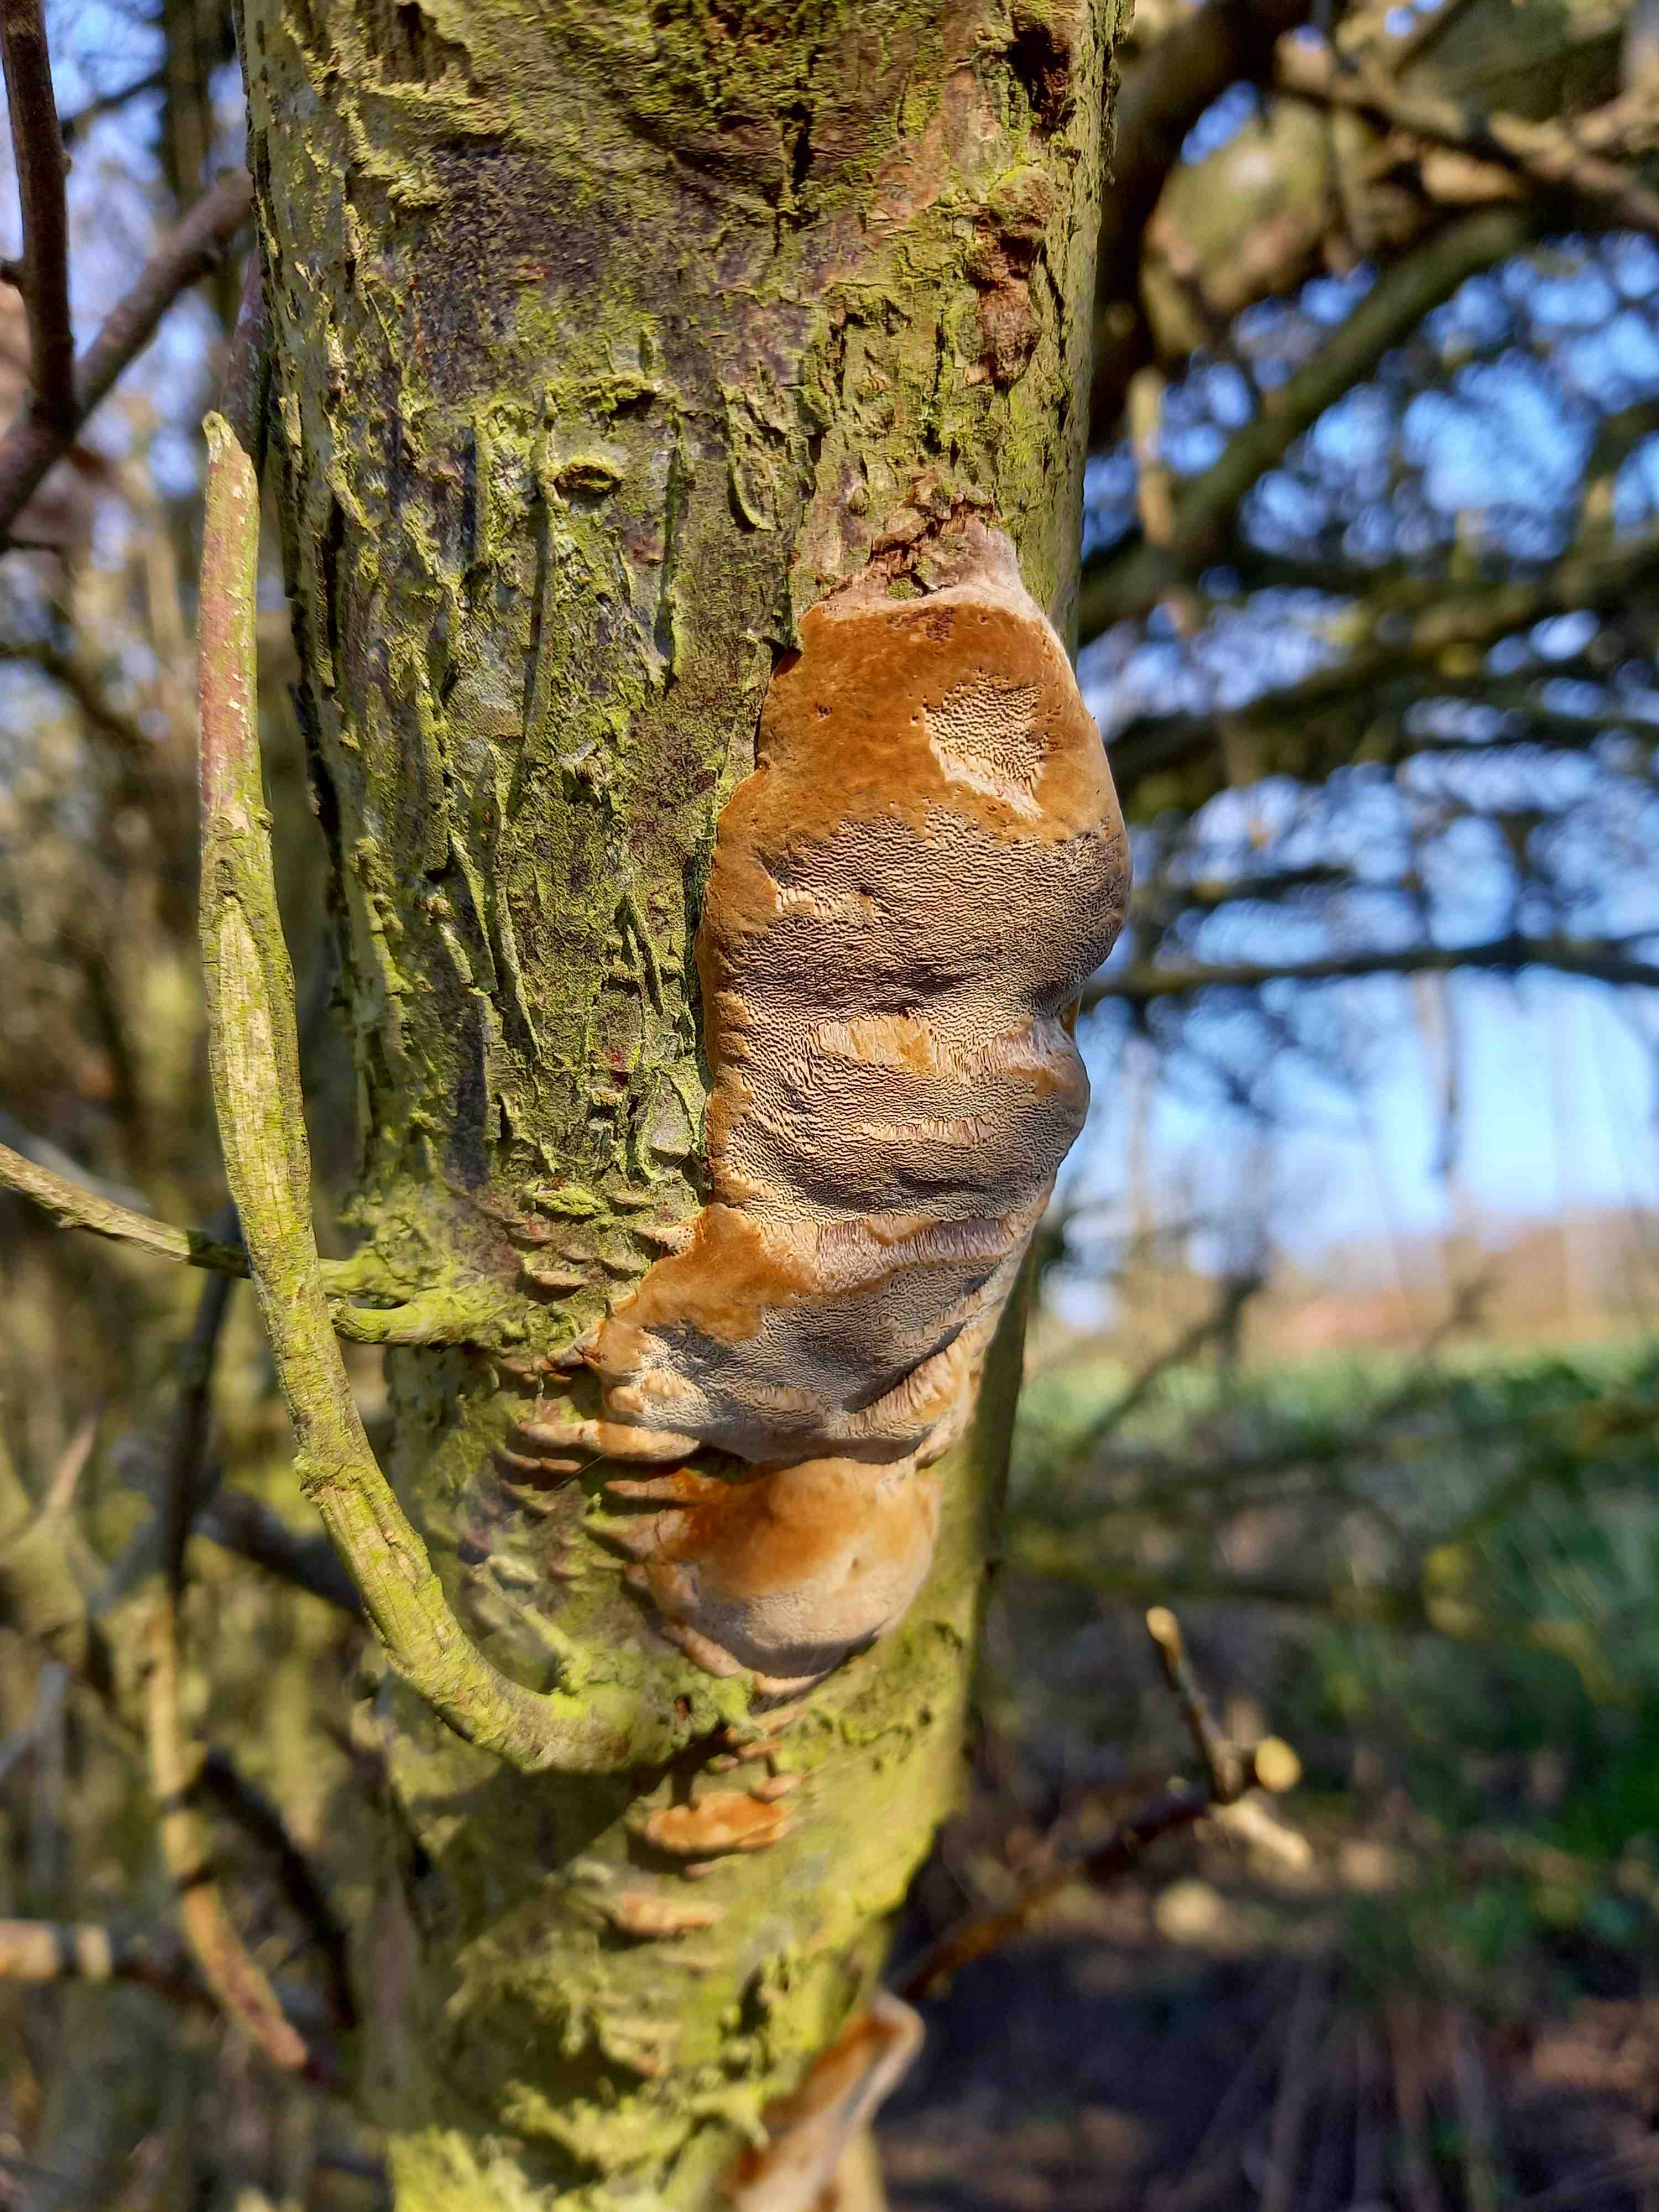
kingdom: Fungi
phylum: Basidiomycota
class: Agaricomycetes
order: Hymenochaetales
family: Hymenochaetaceae
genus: Phellinus
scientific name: Phellinus pomaceus
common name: blomme-ildporesvamp
